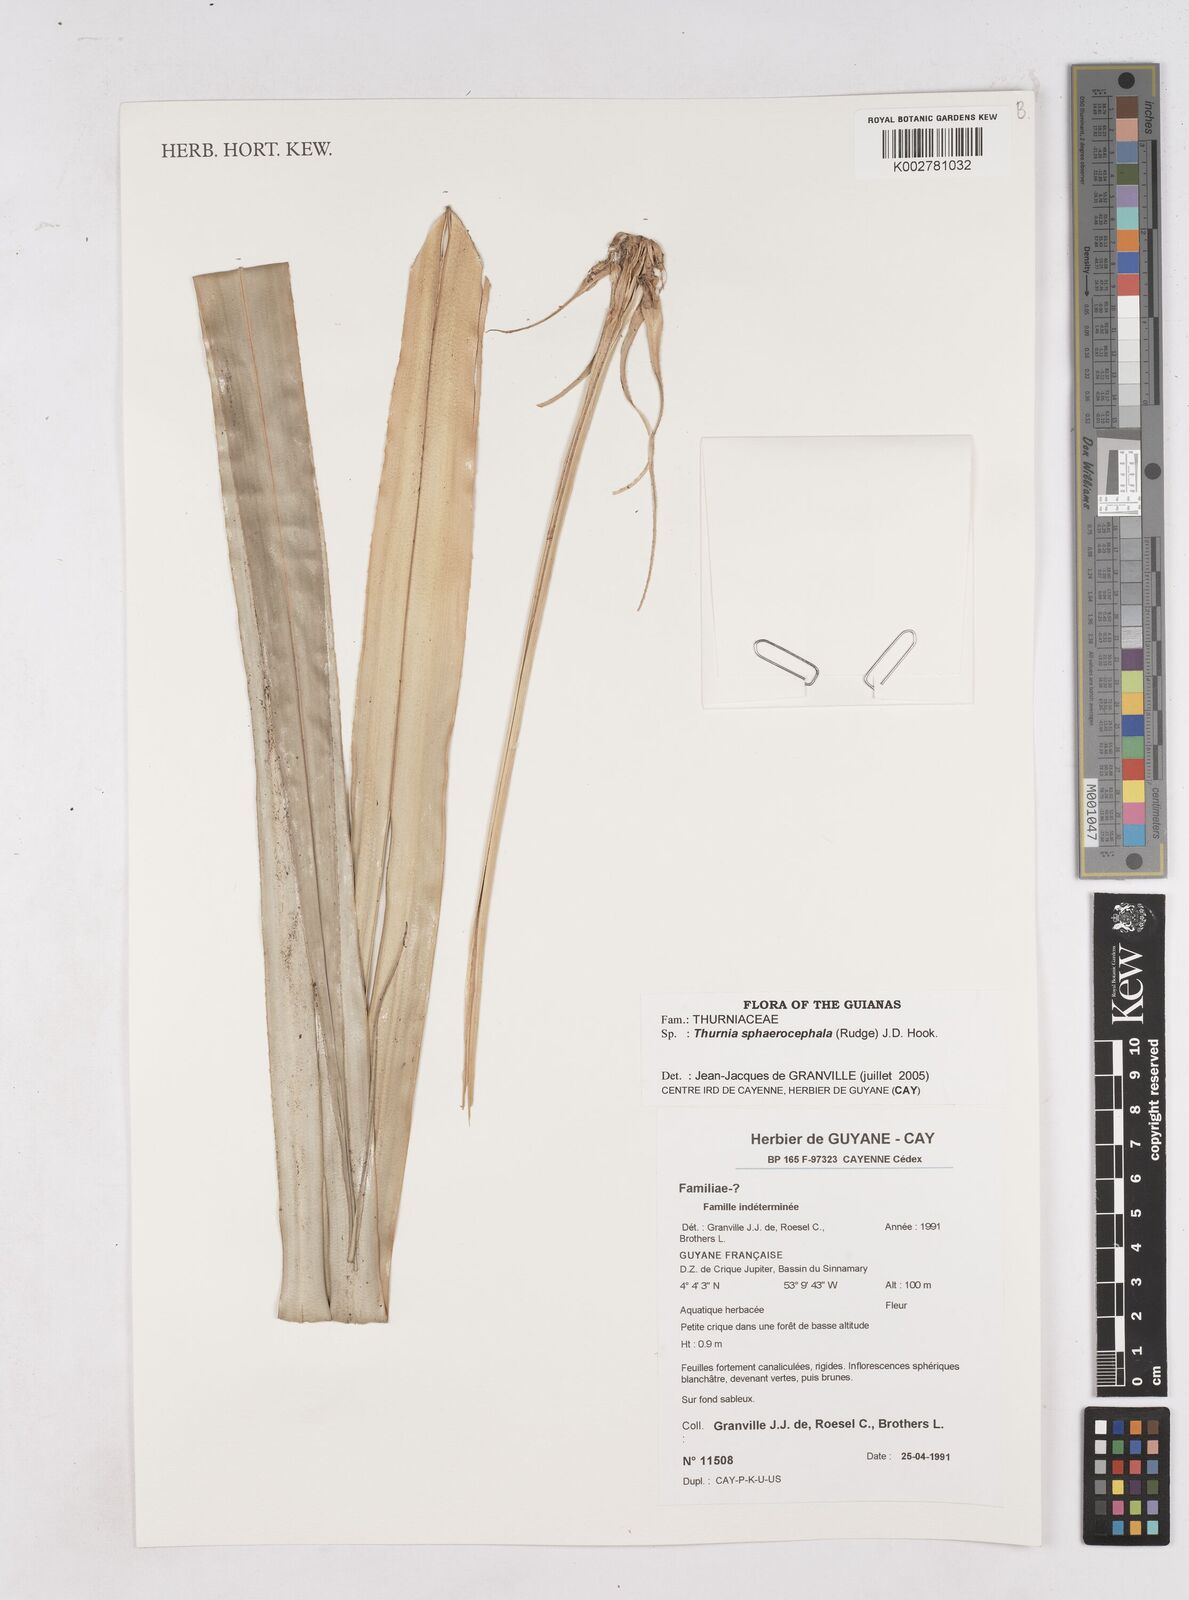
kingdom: Plantae
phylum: Tracheophyta
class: Liliopsida
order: Poales
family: Thurniaceae
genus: Thurnia
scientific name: Thurnia sphaerocephala
